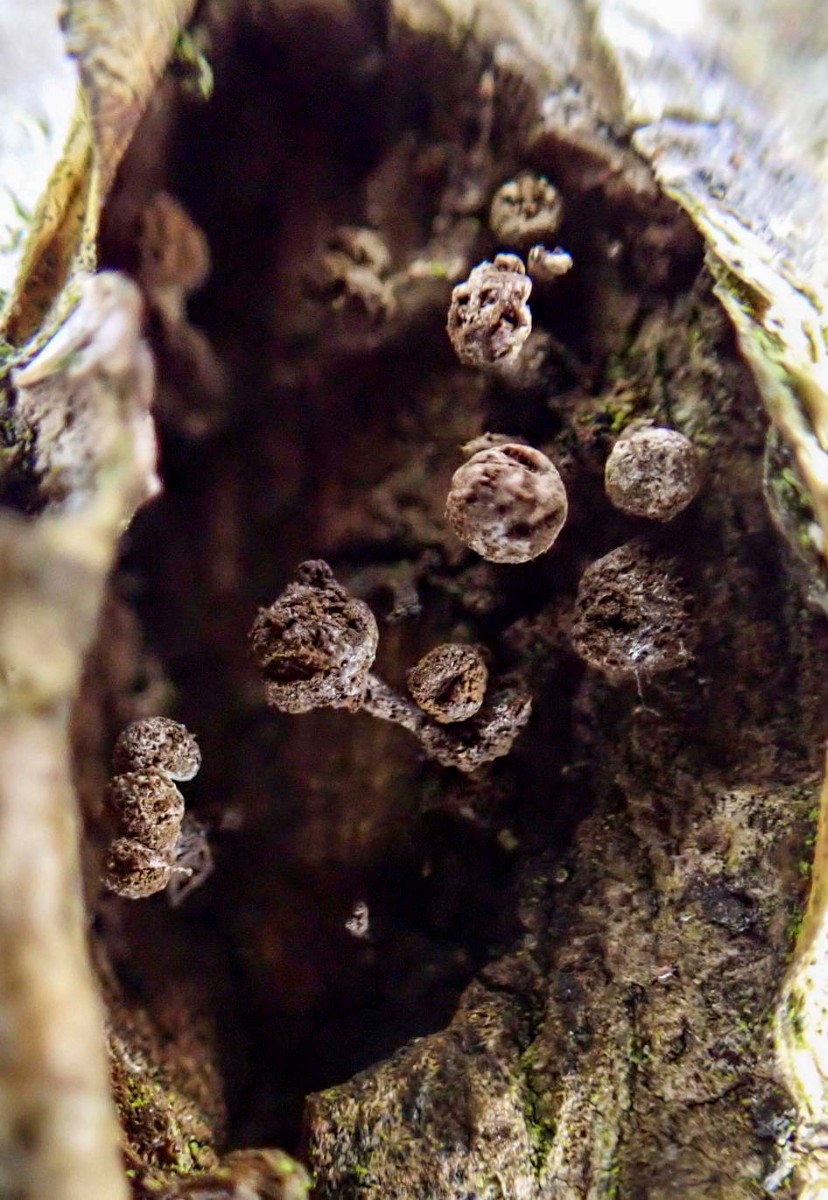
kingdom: Fungi
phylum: Basidiomycota
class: Atractiellomycetes
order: Atractiellales
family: Phleogenaceae
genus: Phleogena
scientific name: Phleogena faginea
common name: pudderkølle
